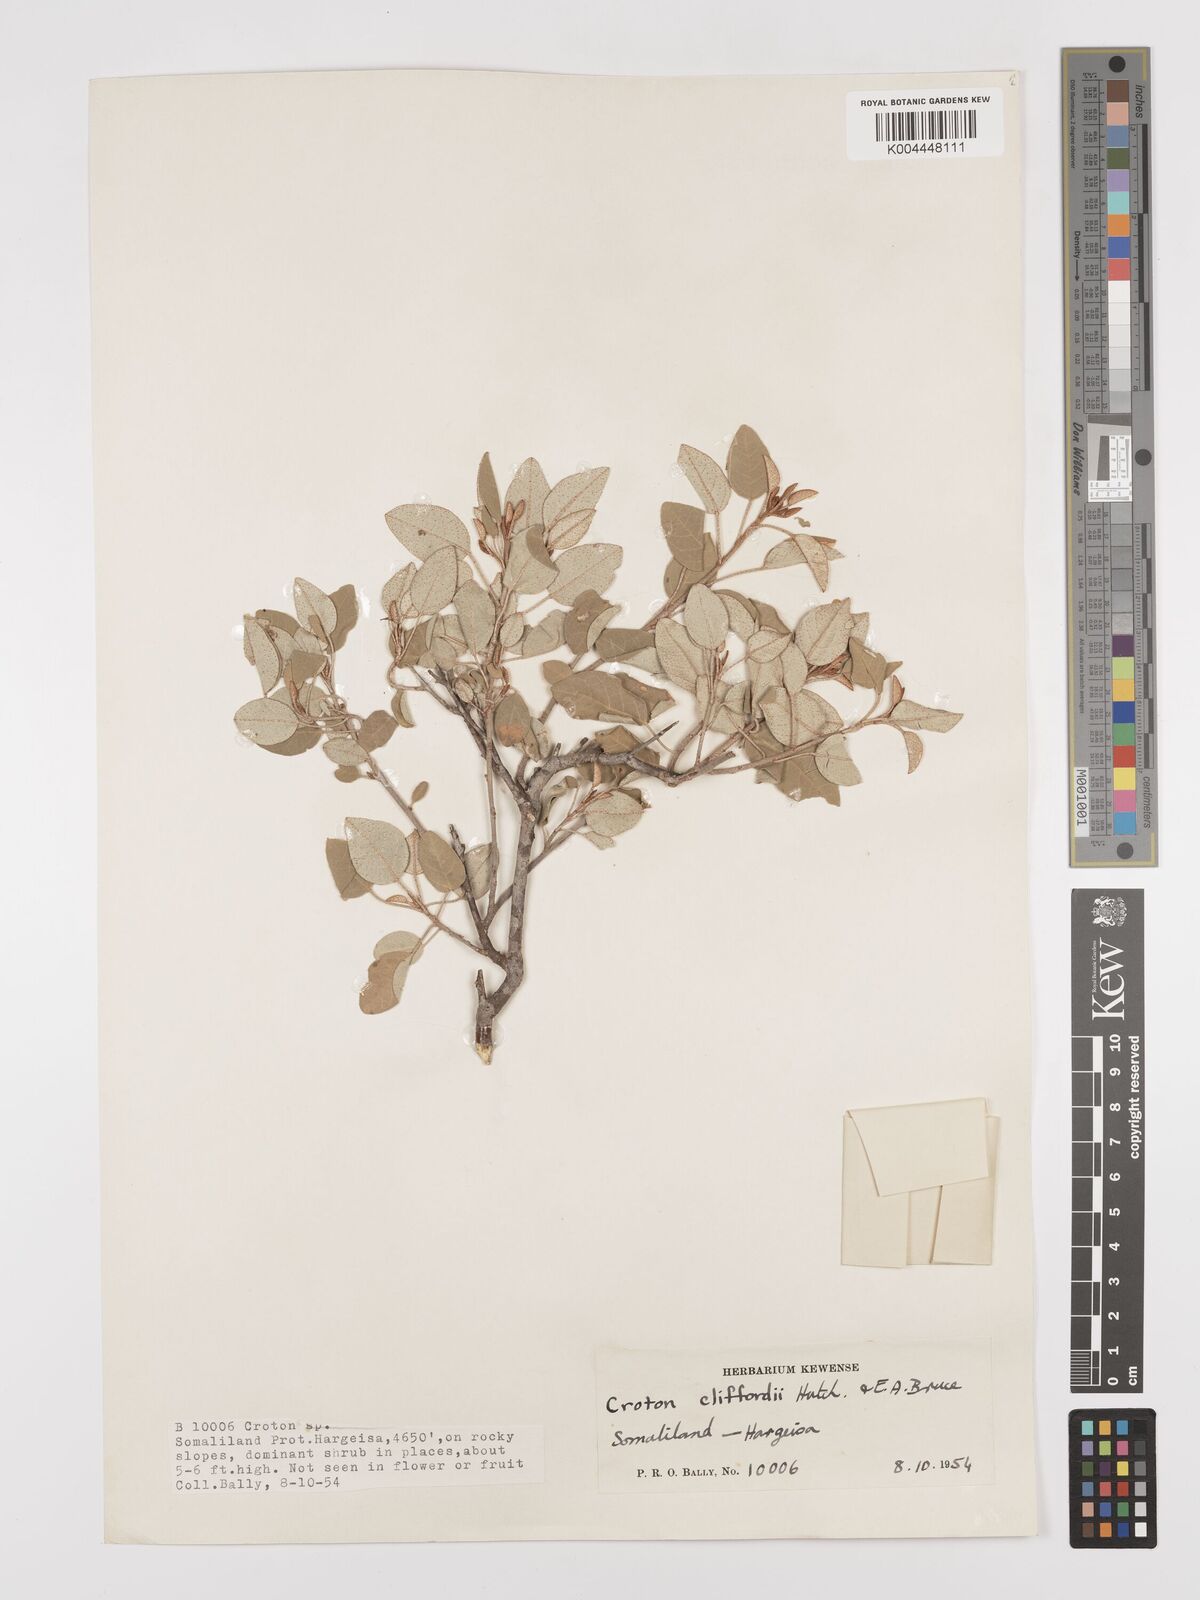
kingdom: Plantae
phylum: Tracheophyta
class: Magnoliopsida
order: Malpighiales
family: Euphorbiaceae
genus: Croton
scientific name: Croton cliffordii
